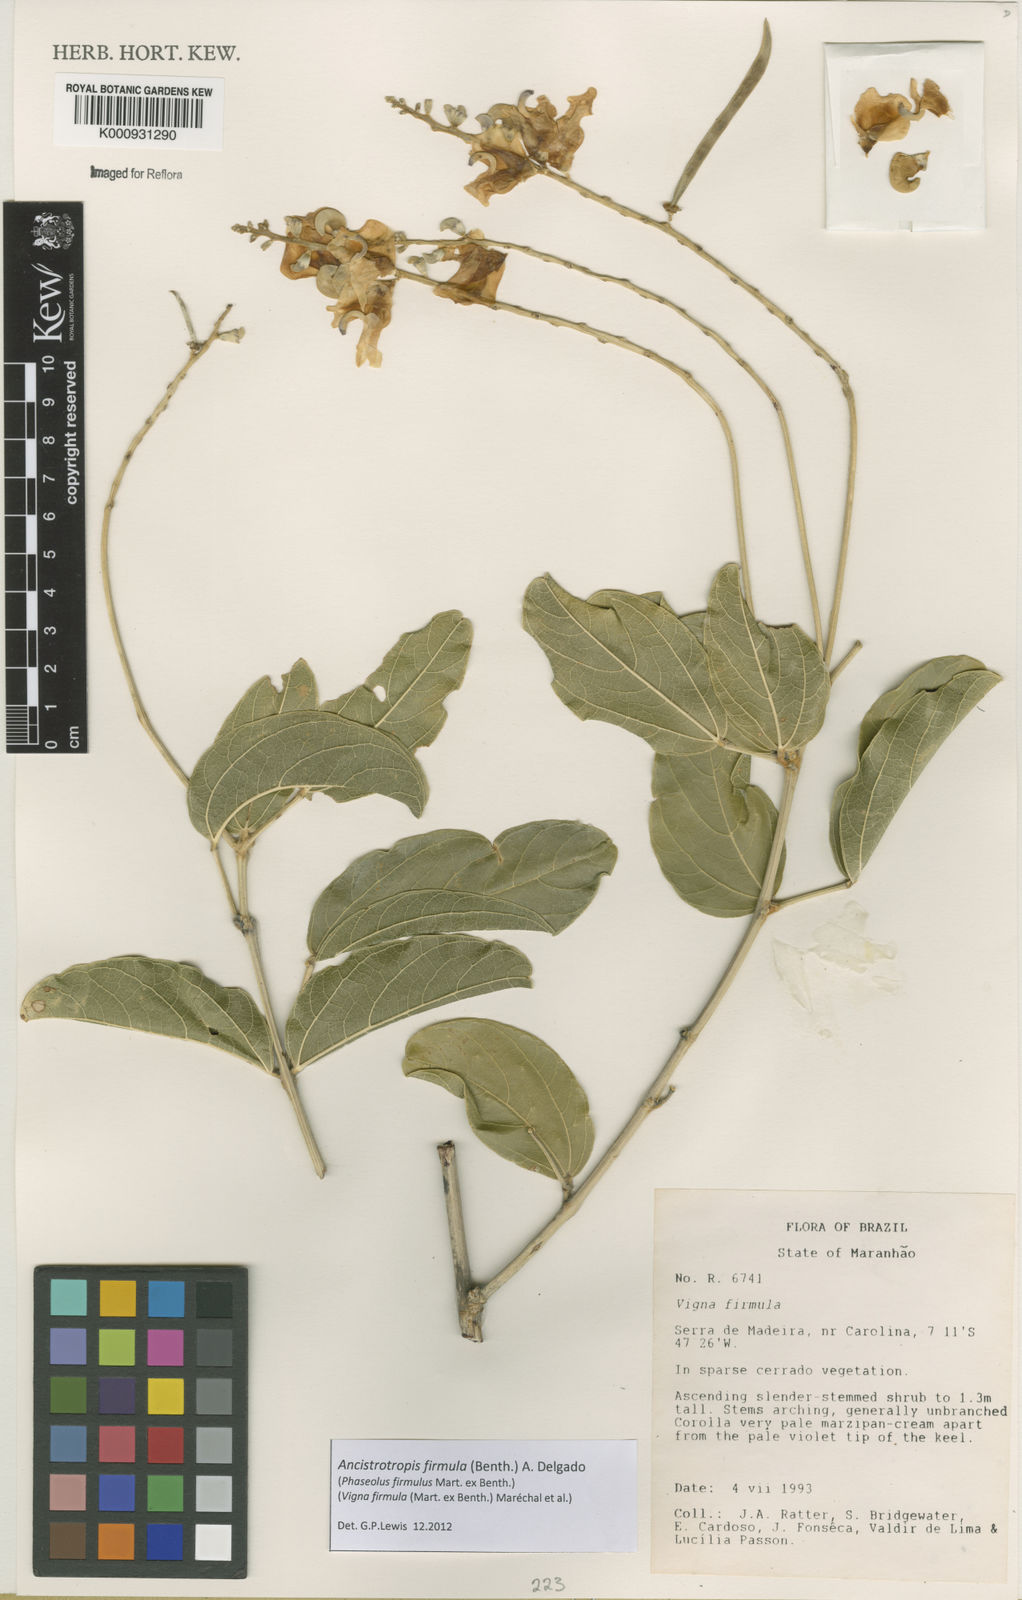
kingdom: Plantae
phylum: Tracheophyta
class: Magnoliopsida
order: Fabales
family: Fabaceae
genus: Ancistrotropis
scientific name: Ancistrotropis firmula
